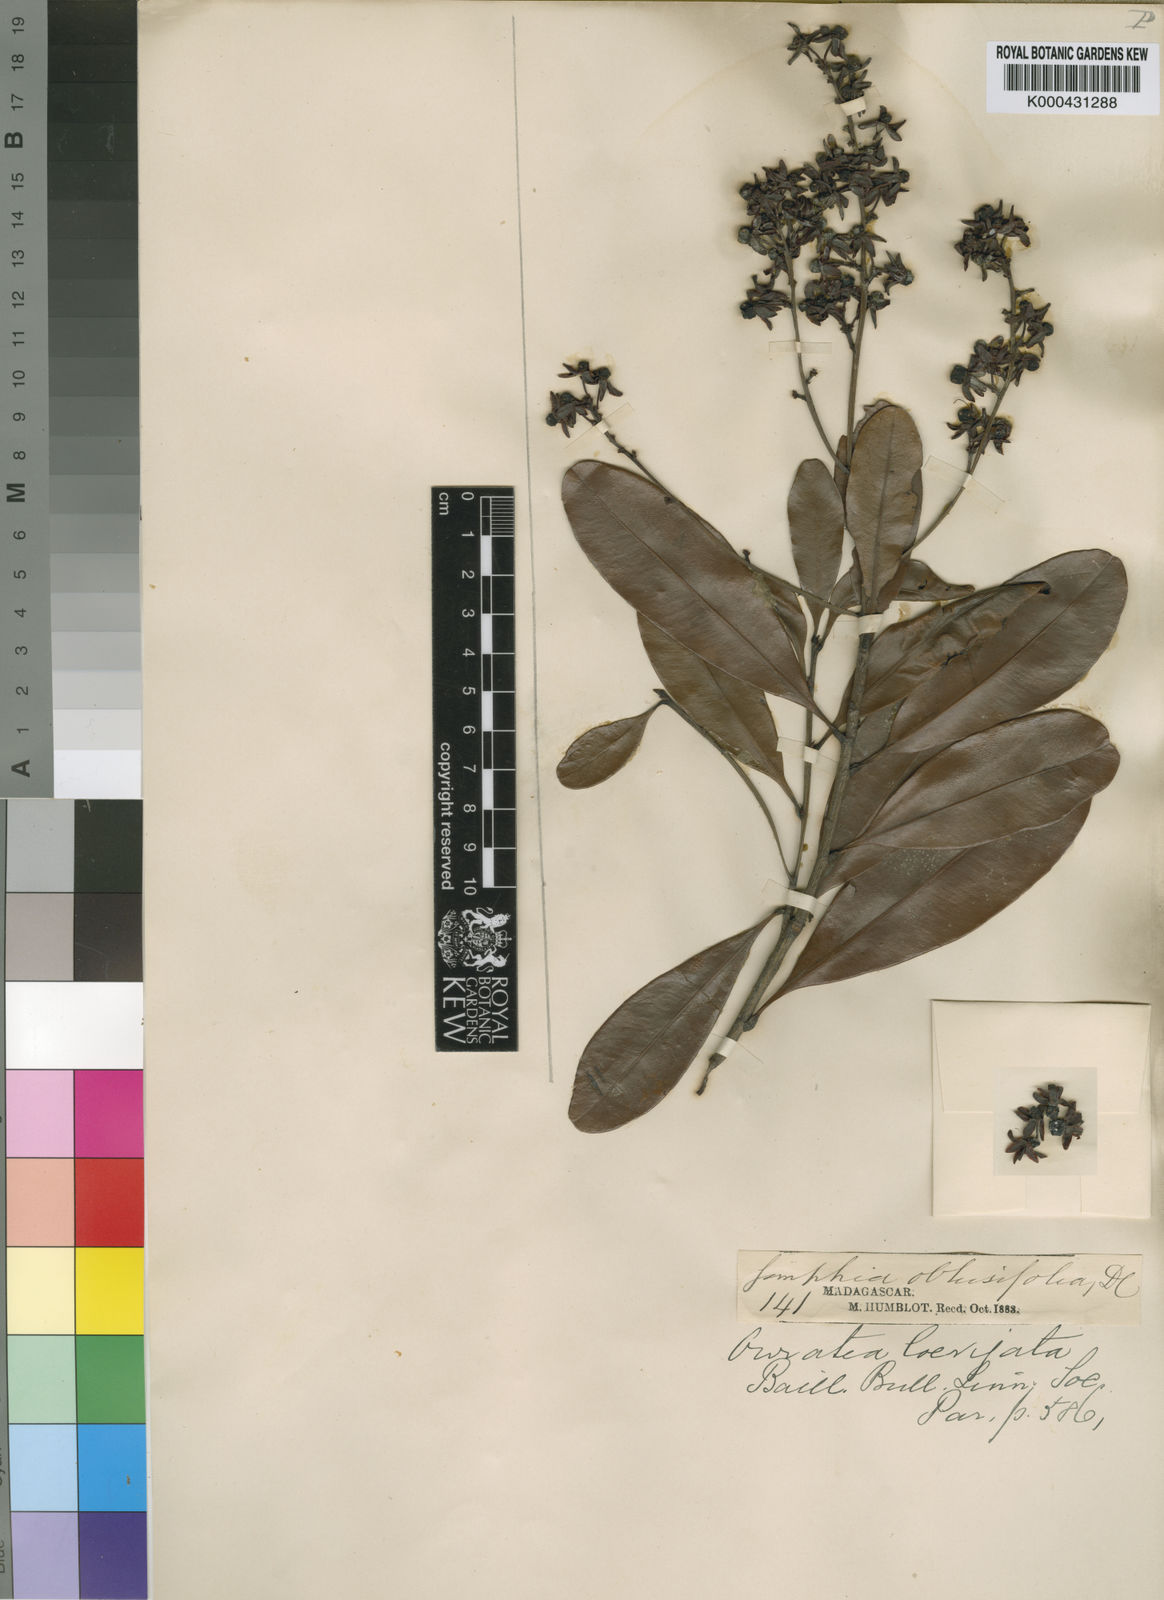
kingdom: Plantae
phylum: Tracheophyta
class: Magnoliopsida
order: Malpighiales
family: Ochnaceae
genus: Gomphia
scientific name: Gomphia obtusifolia
